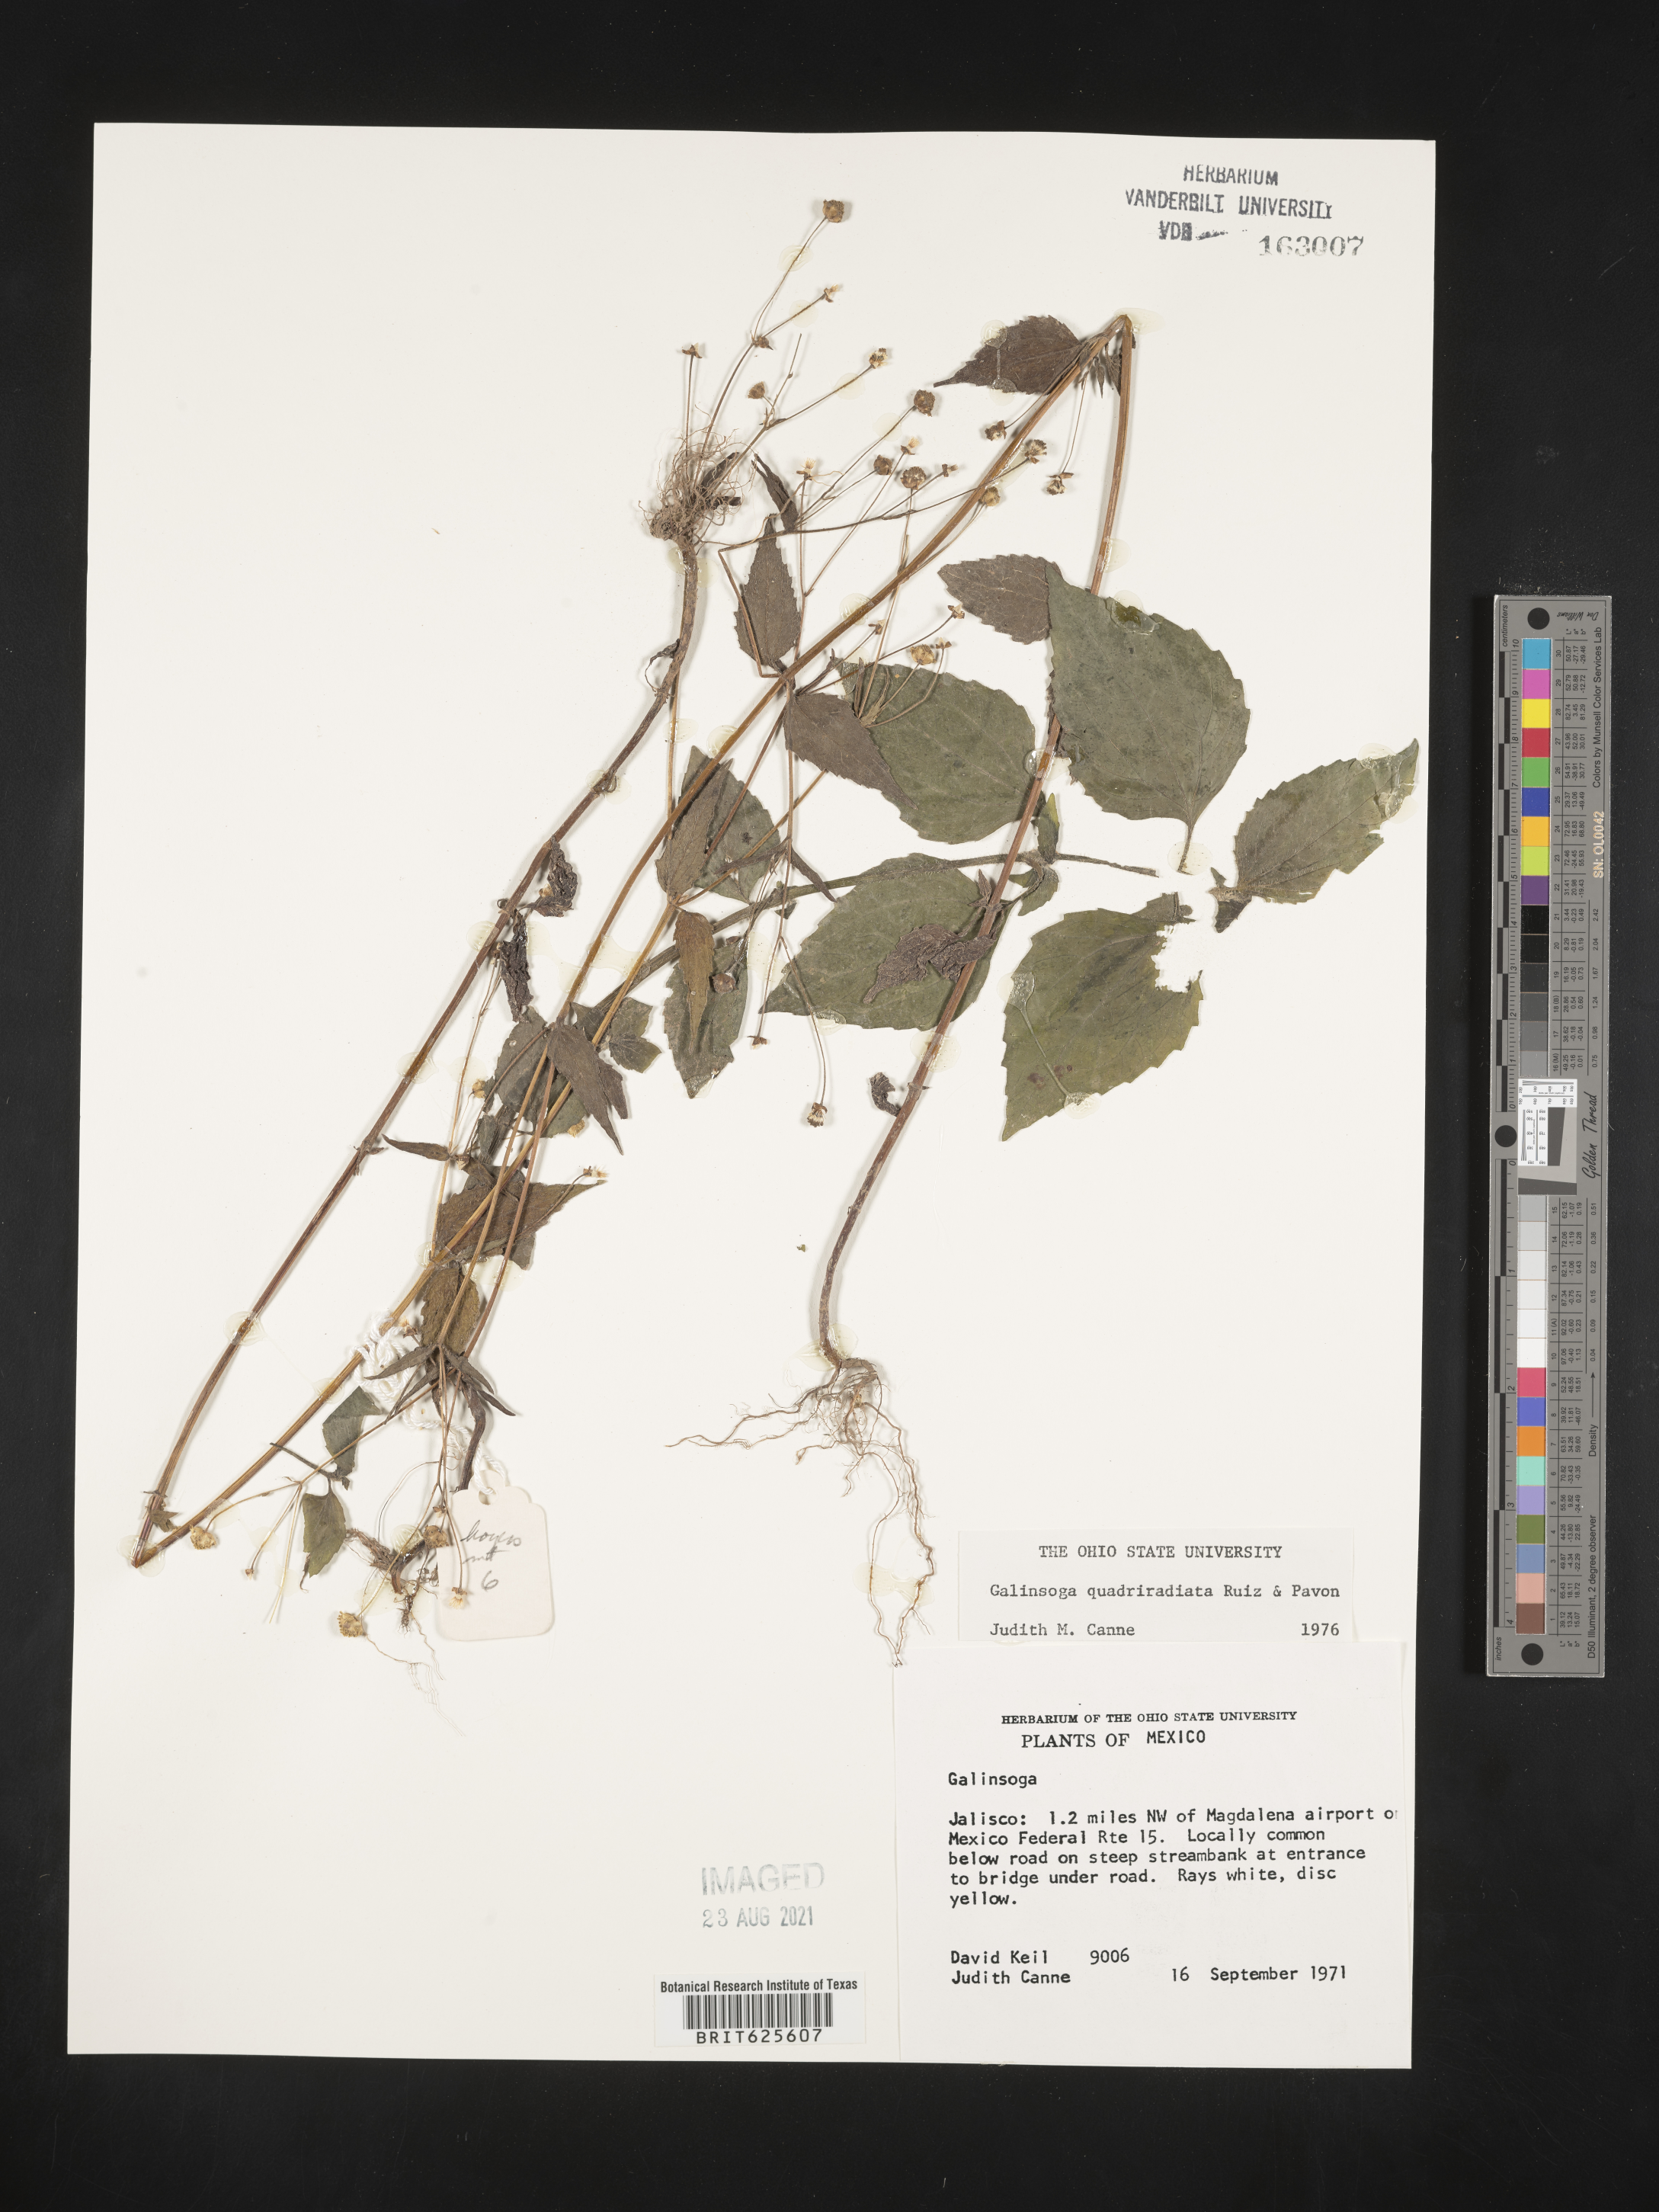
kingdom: Plantae
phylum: Tracheophyta
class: Magnoliopsida
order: Asterales
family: Asteraceae
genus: Galinsoga
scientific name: Galinsoga
